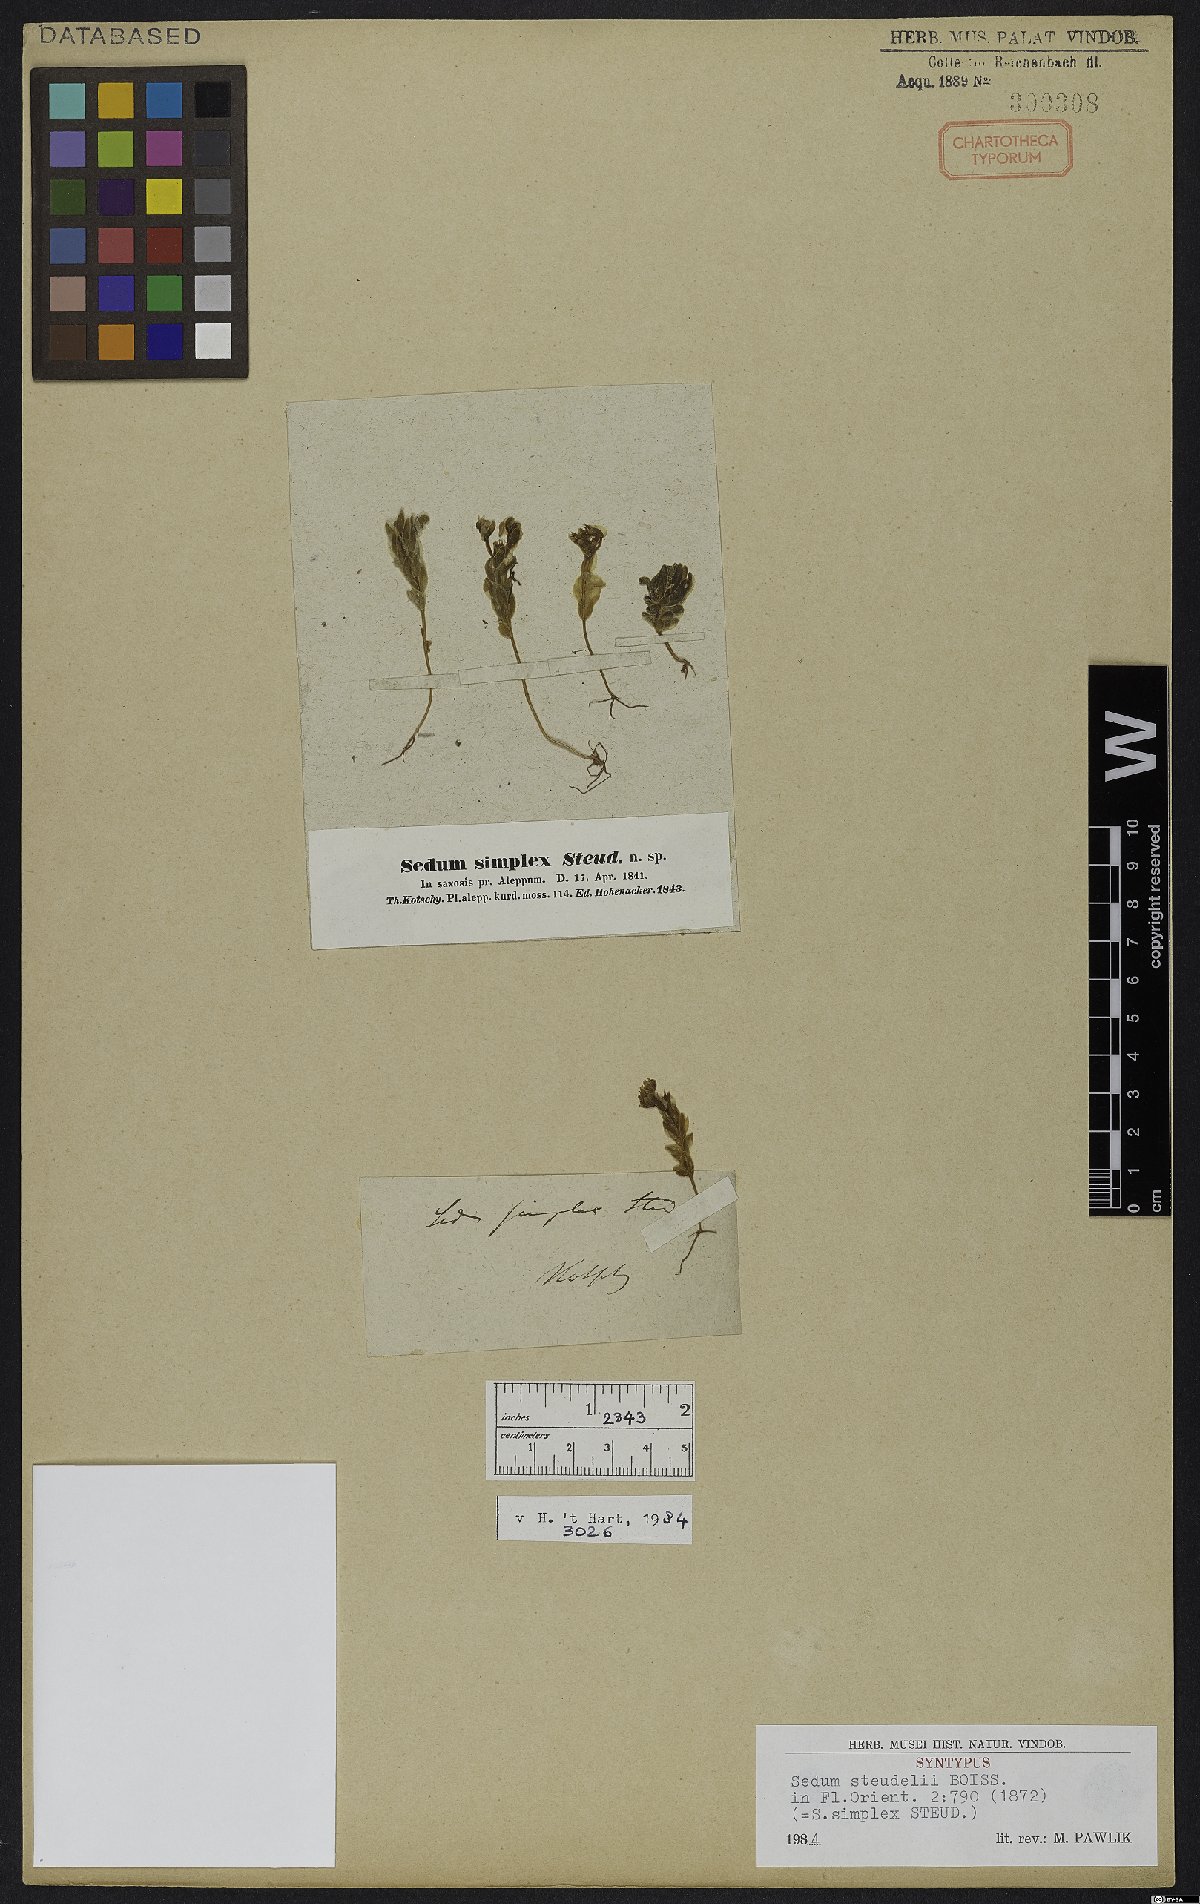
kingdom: Plantae
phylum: Tracheophyta
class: Magnoliopsida
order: Saxifragales
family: Crassulaceae
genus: Sedum
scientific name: Sedum rubens
